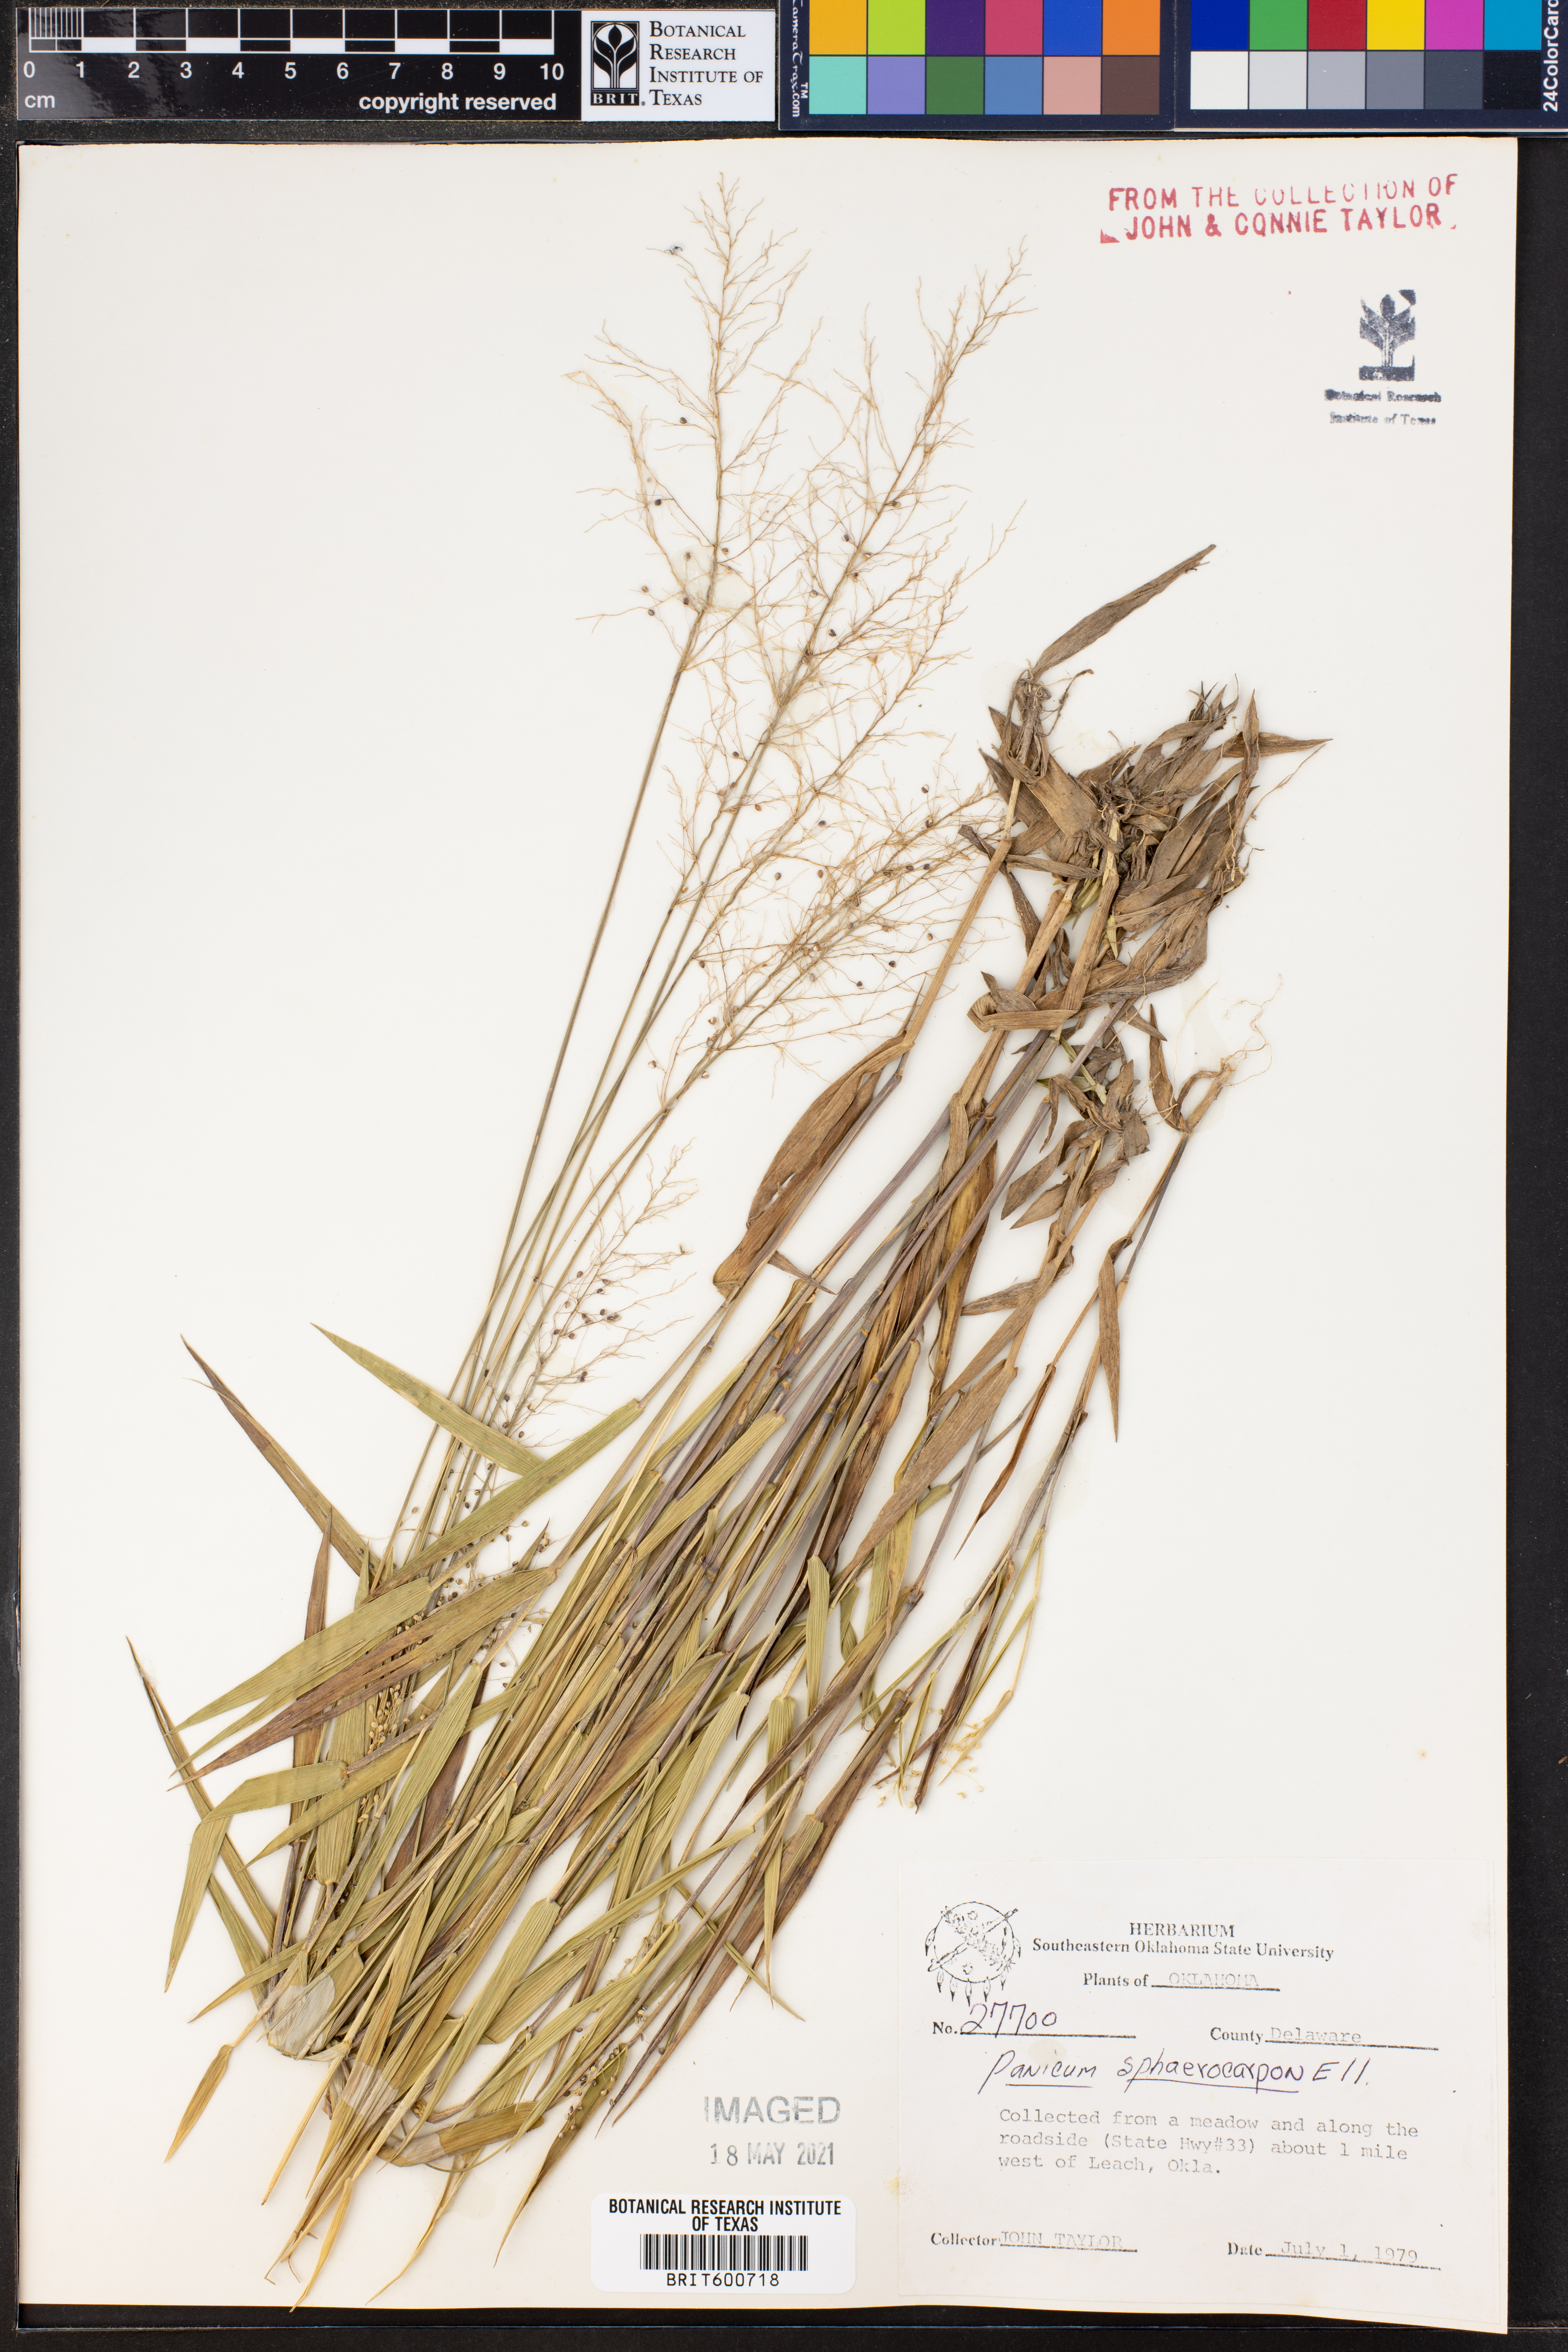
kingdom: Plantae
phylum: Tracheophyta
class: Liliopsida
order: Poales
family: Poaceae
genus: Dichanthelium
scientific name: Dichanthelium sphaerocarpon
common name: Round-fruited panicgrass
